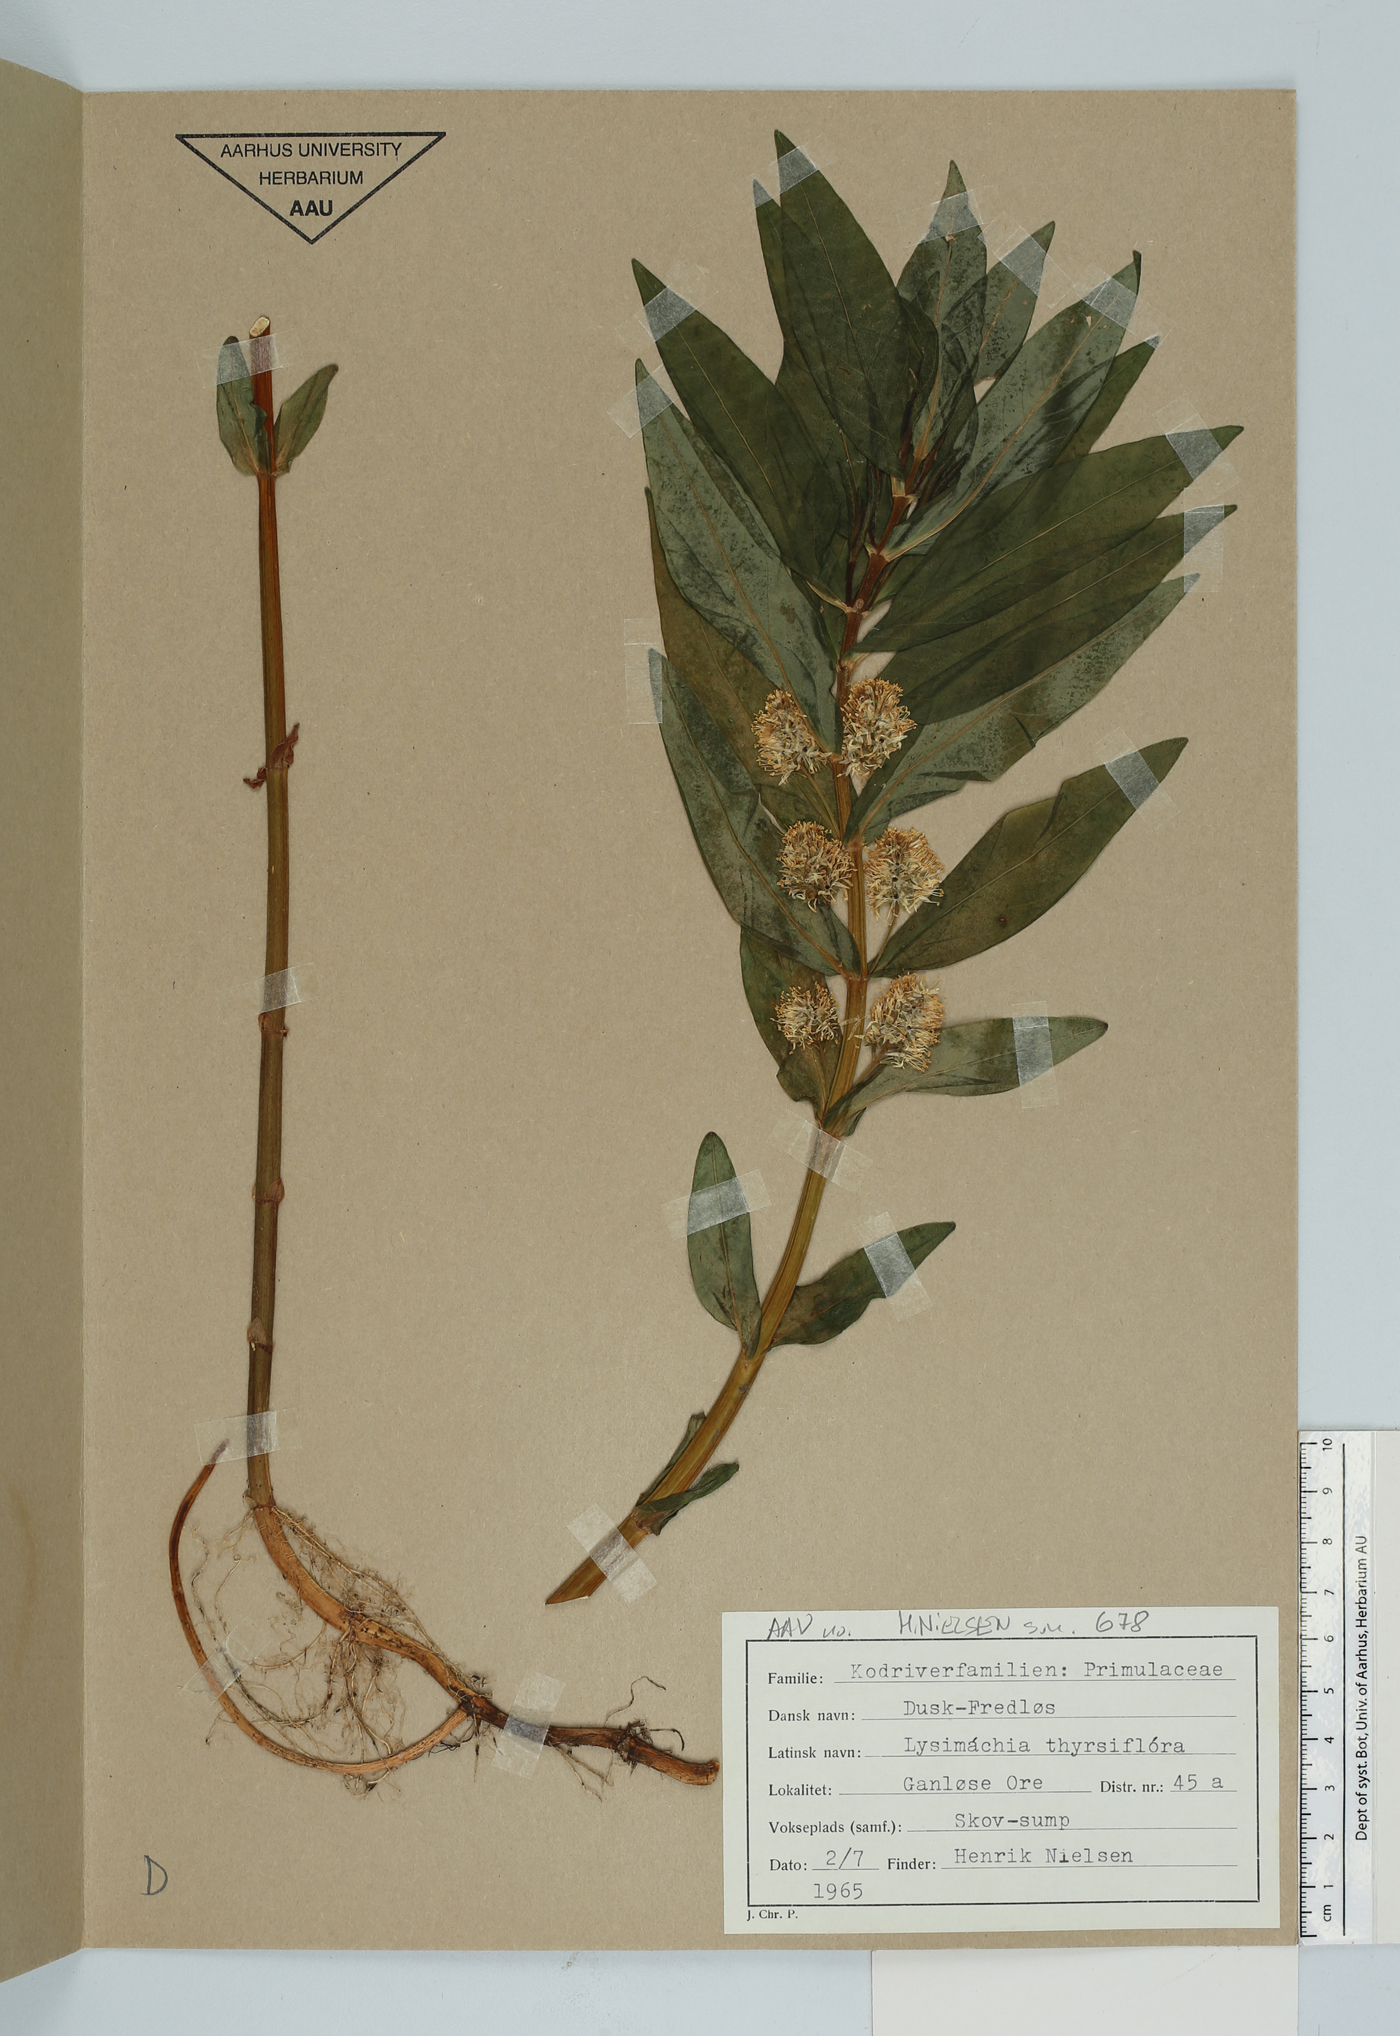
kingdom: Plantae
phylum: Tracheophyta
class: Magnoliopsida
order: Ericales
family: Primulaceae
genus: Lysimachia
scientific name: Lysimachia thyrsiflora
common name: Tufted loosestrife
